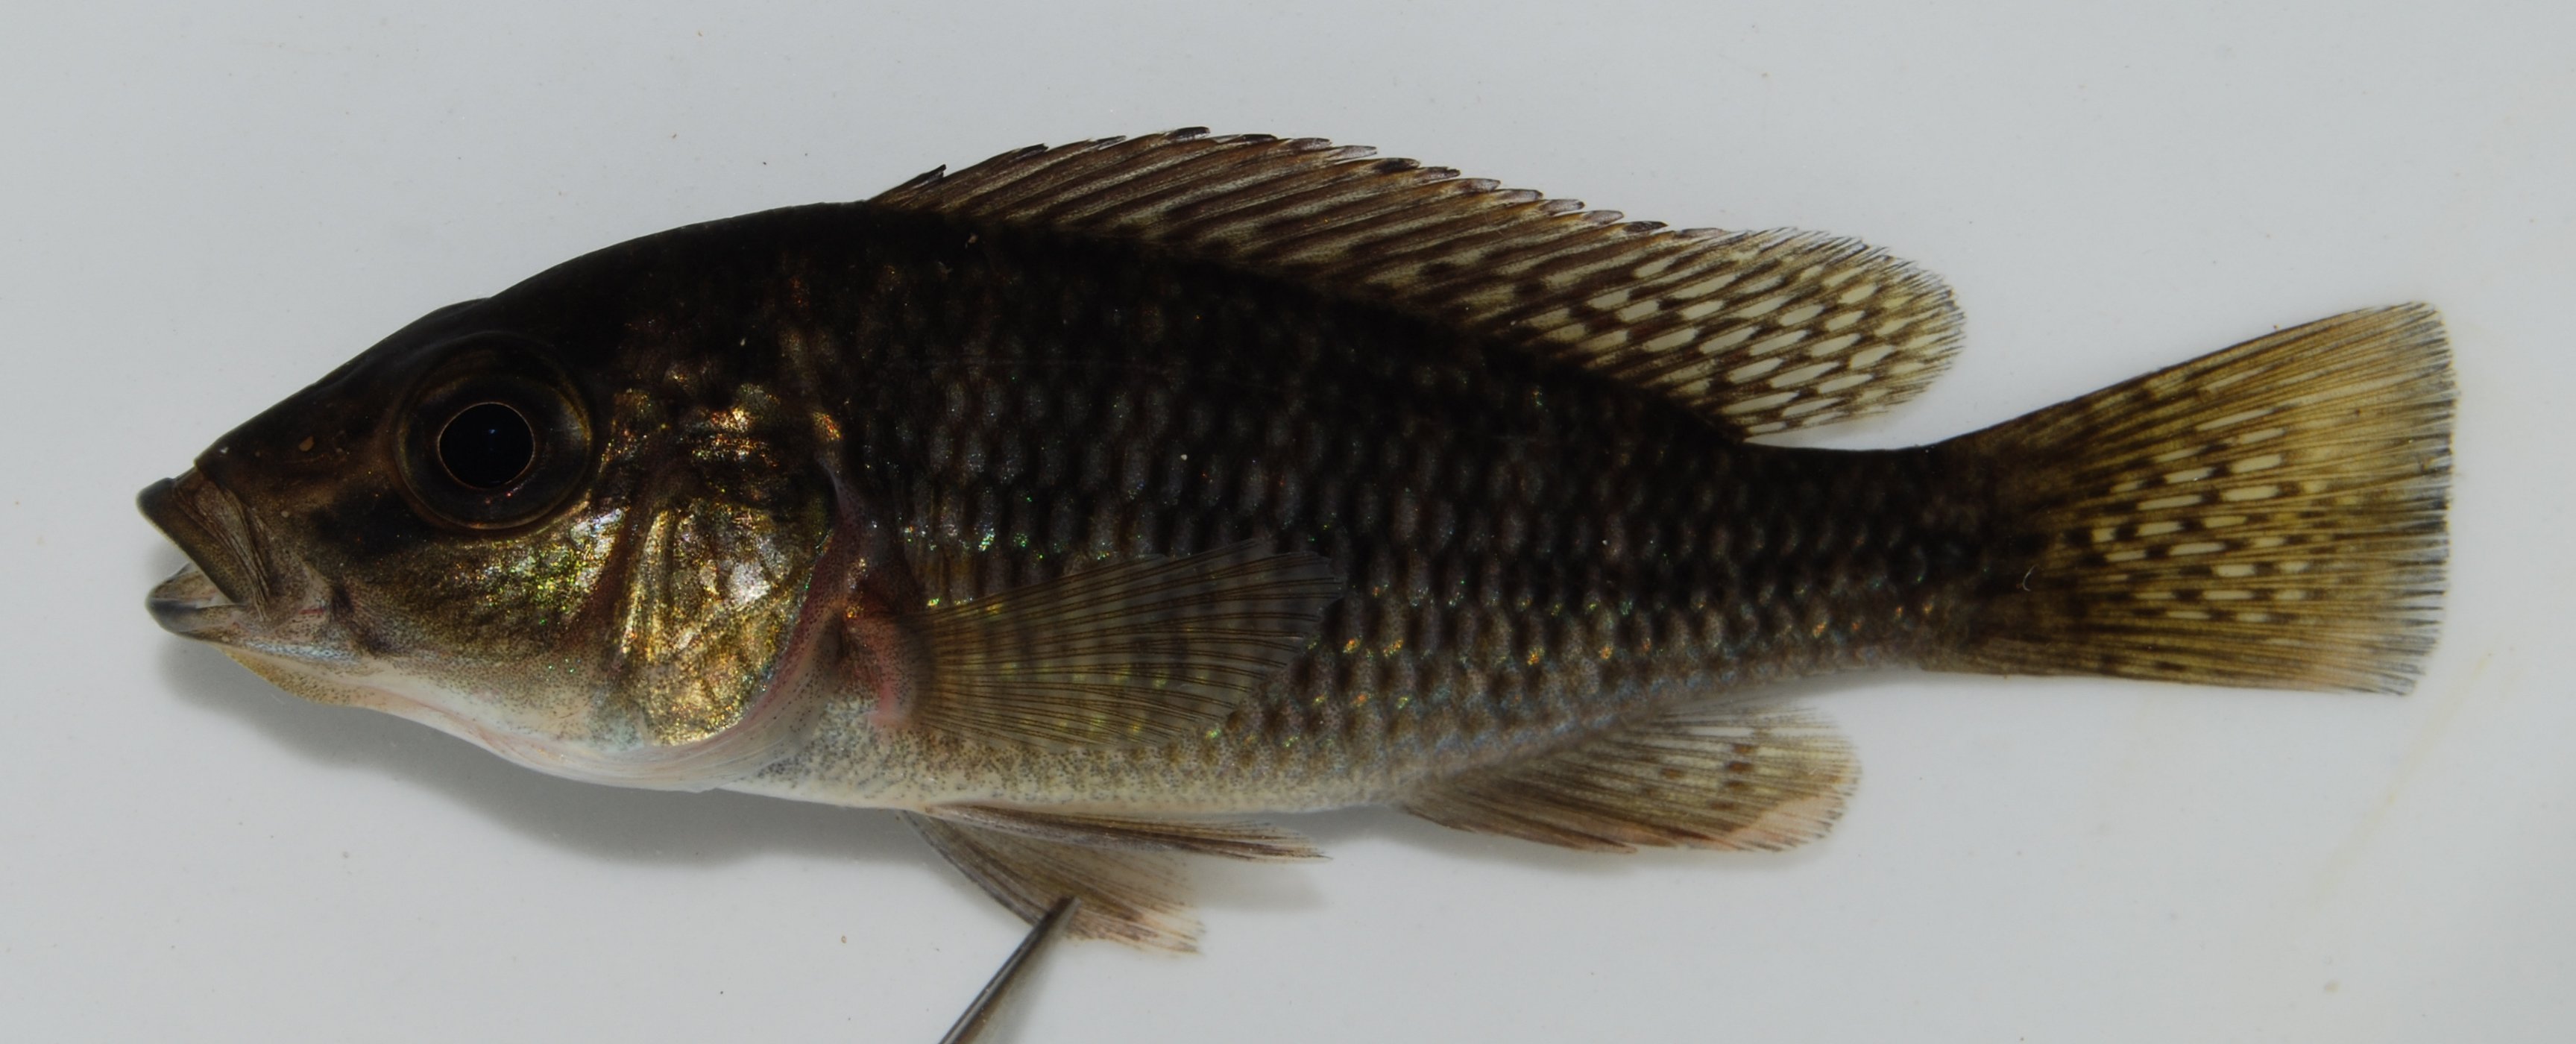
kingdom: Animalia
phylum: Chordata
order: Perciformes
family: Cichlidae
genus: Sargochromis
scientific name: Sargochromis
